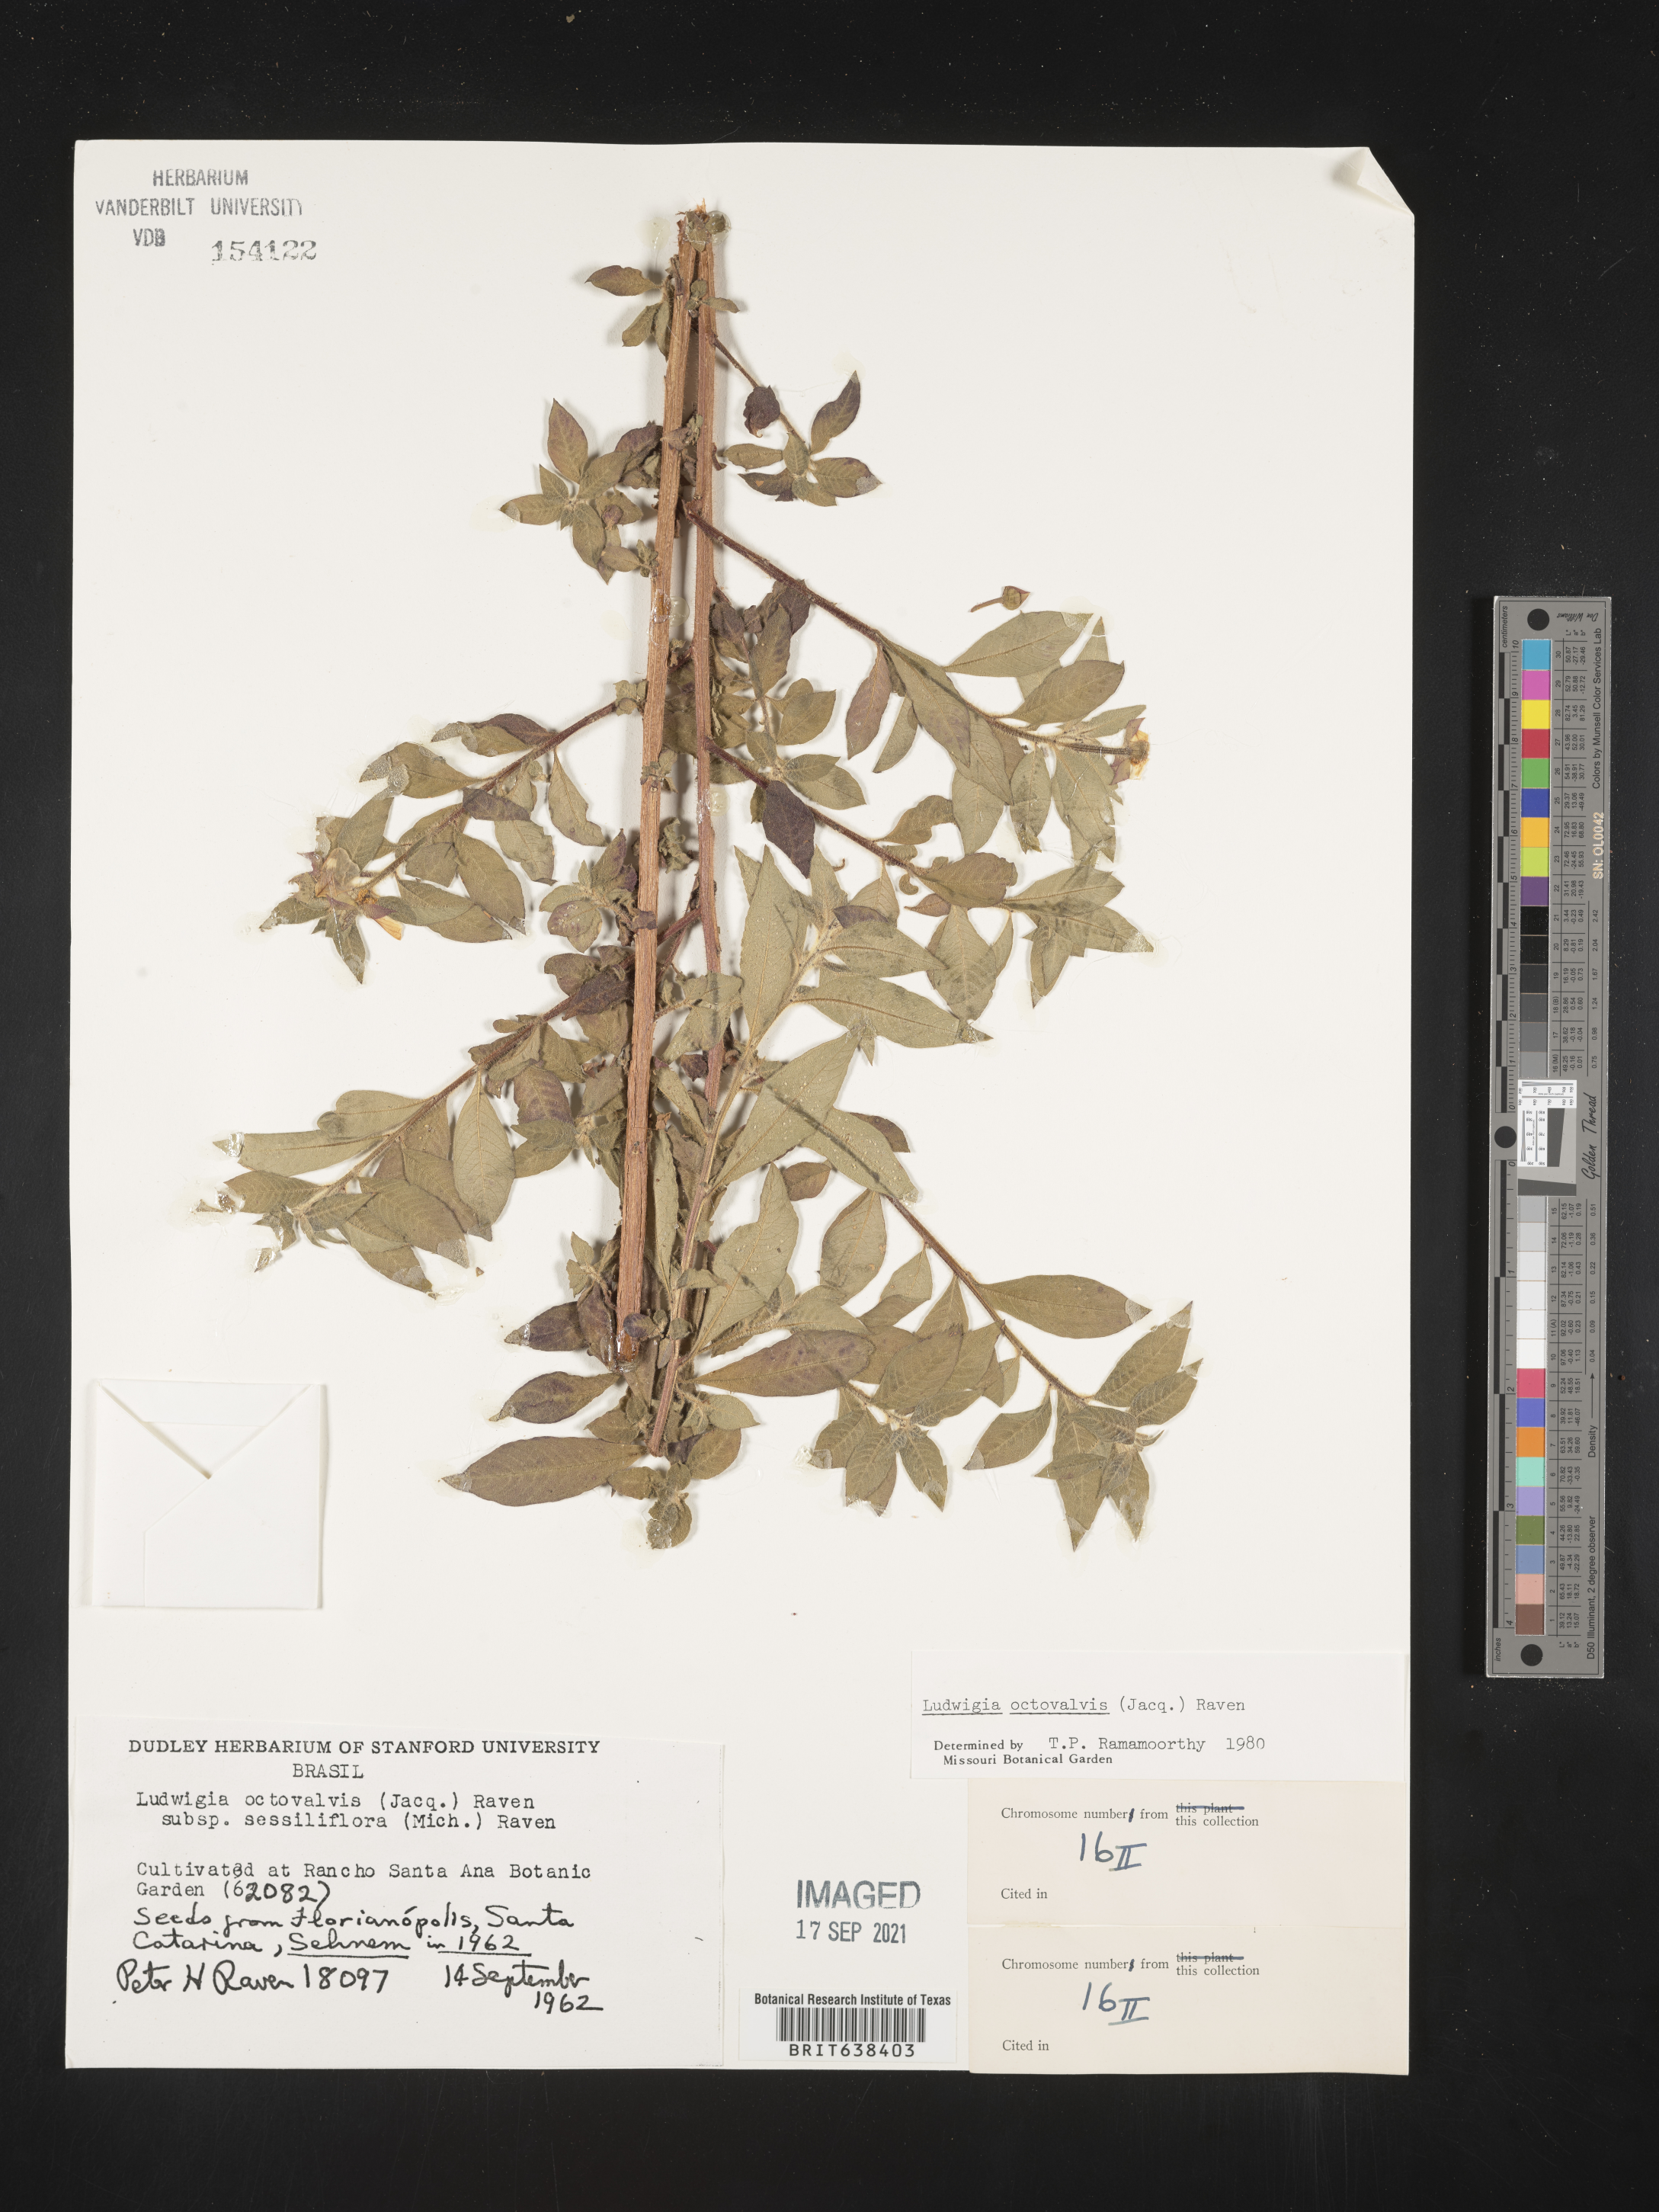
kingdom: Plantae
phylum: Tracheophyta
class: Magnoliopsida
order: Myrtales
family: Onagraceae
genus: Ludwigia
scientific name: Ludwigia
